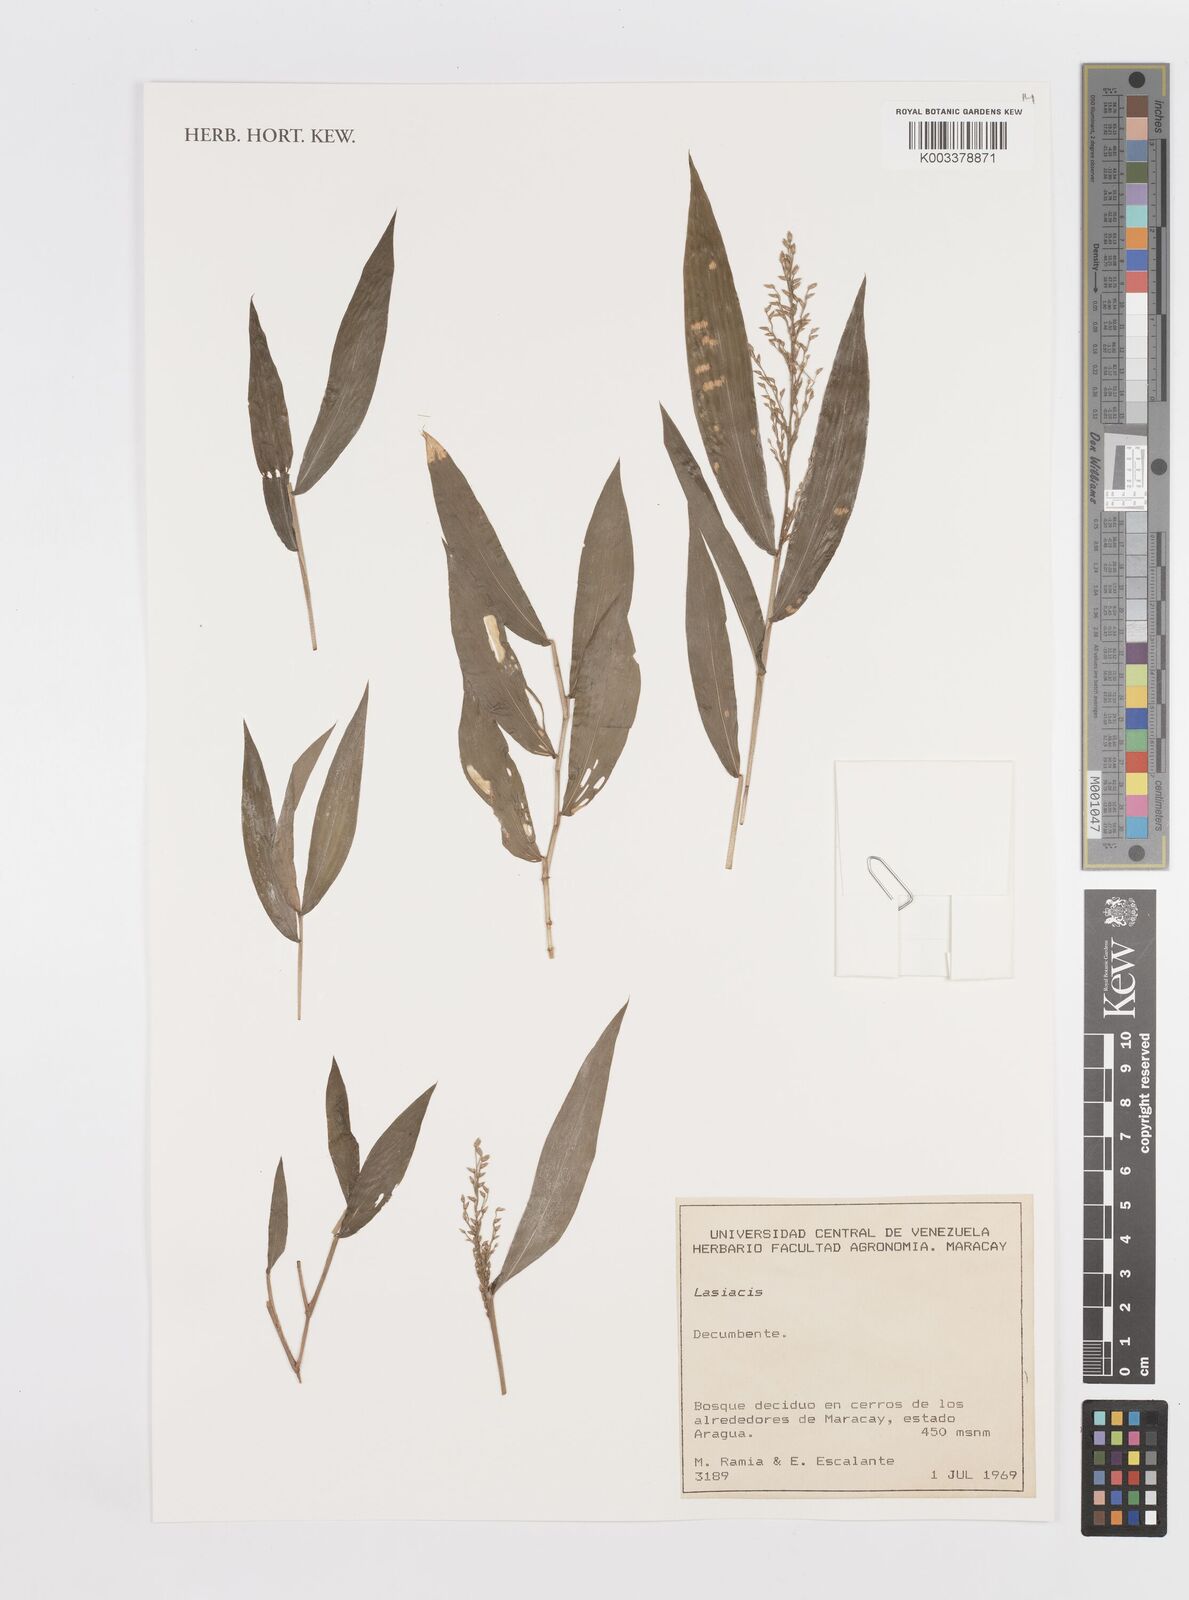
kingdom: Plantae
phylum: Tracheophyta
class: Liliopsida
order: Poales
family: Poaceae
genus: Lasiacis
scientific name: Lasiacis
